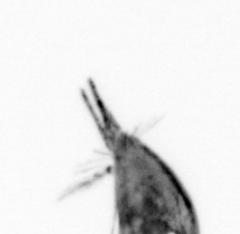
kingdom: Animalia
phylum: Arthropoda
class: Maxillopoda
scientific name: Maxillopoda
